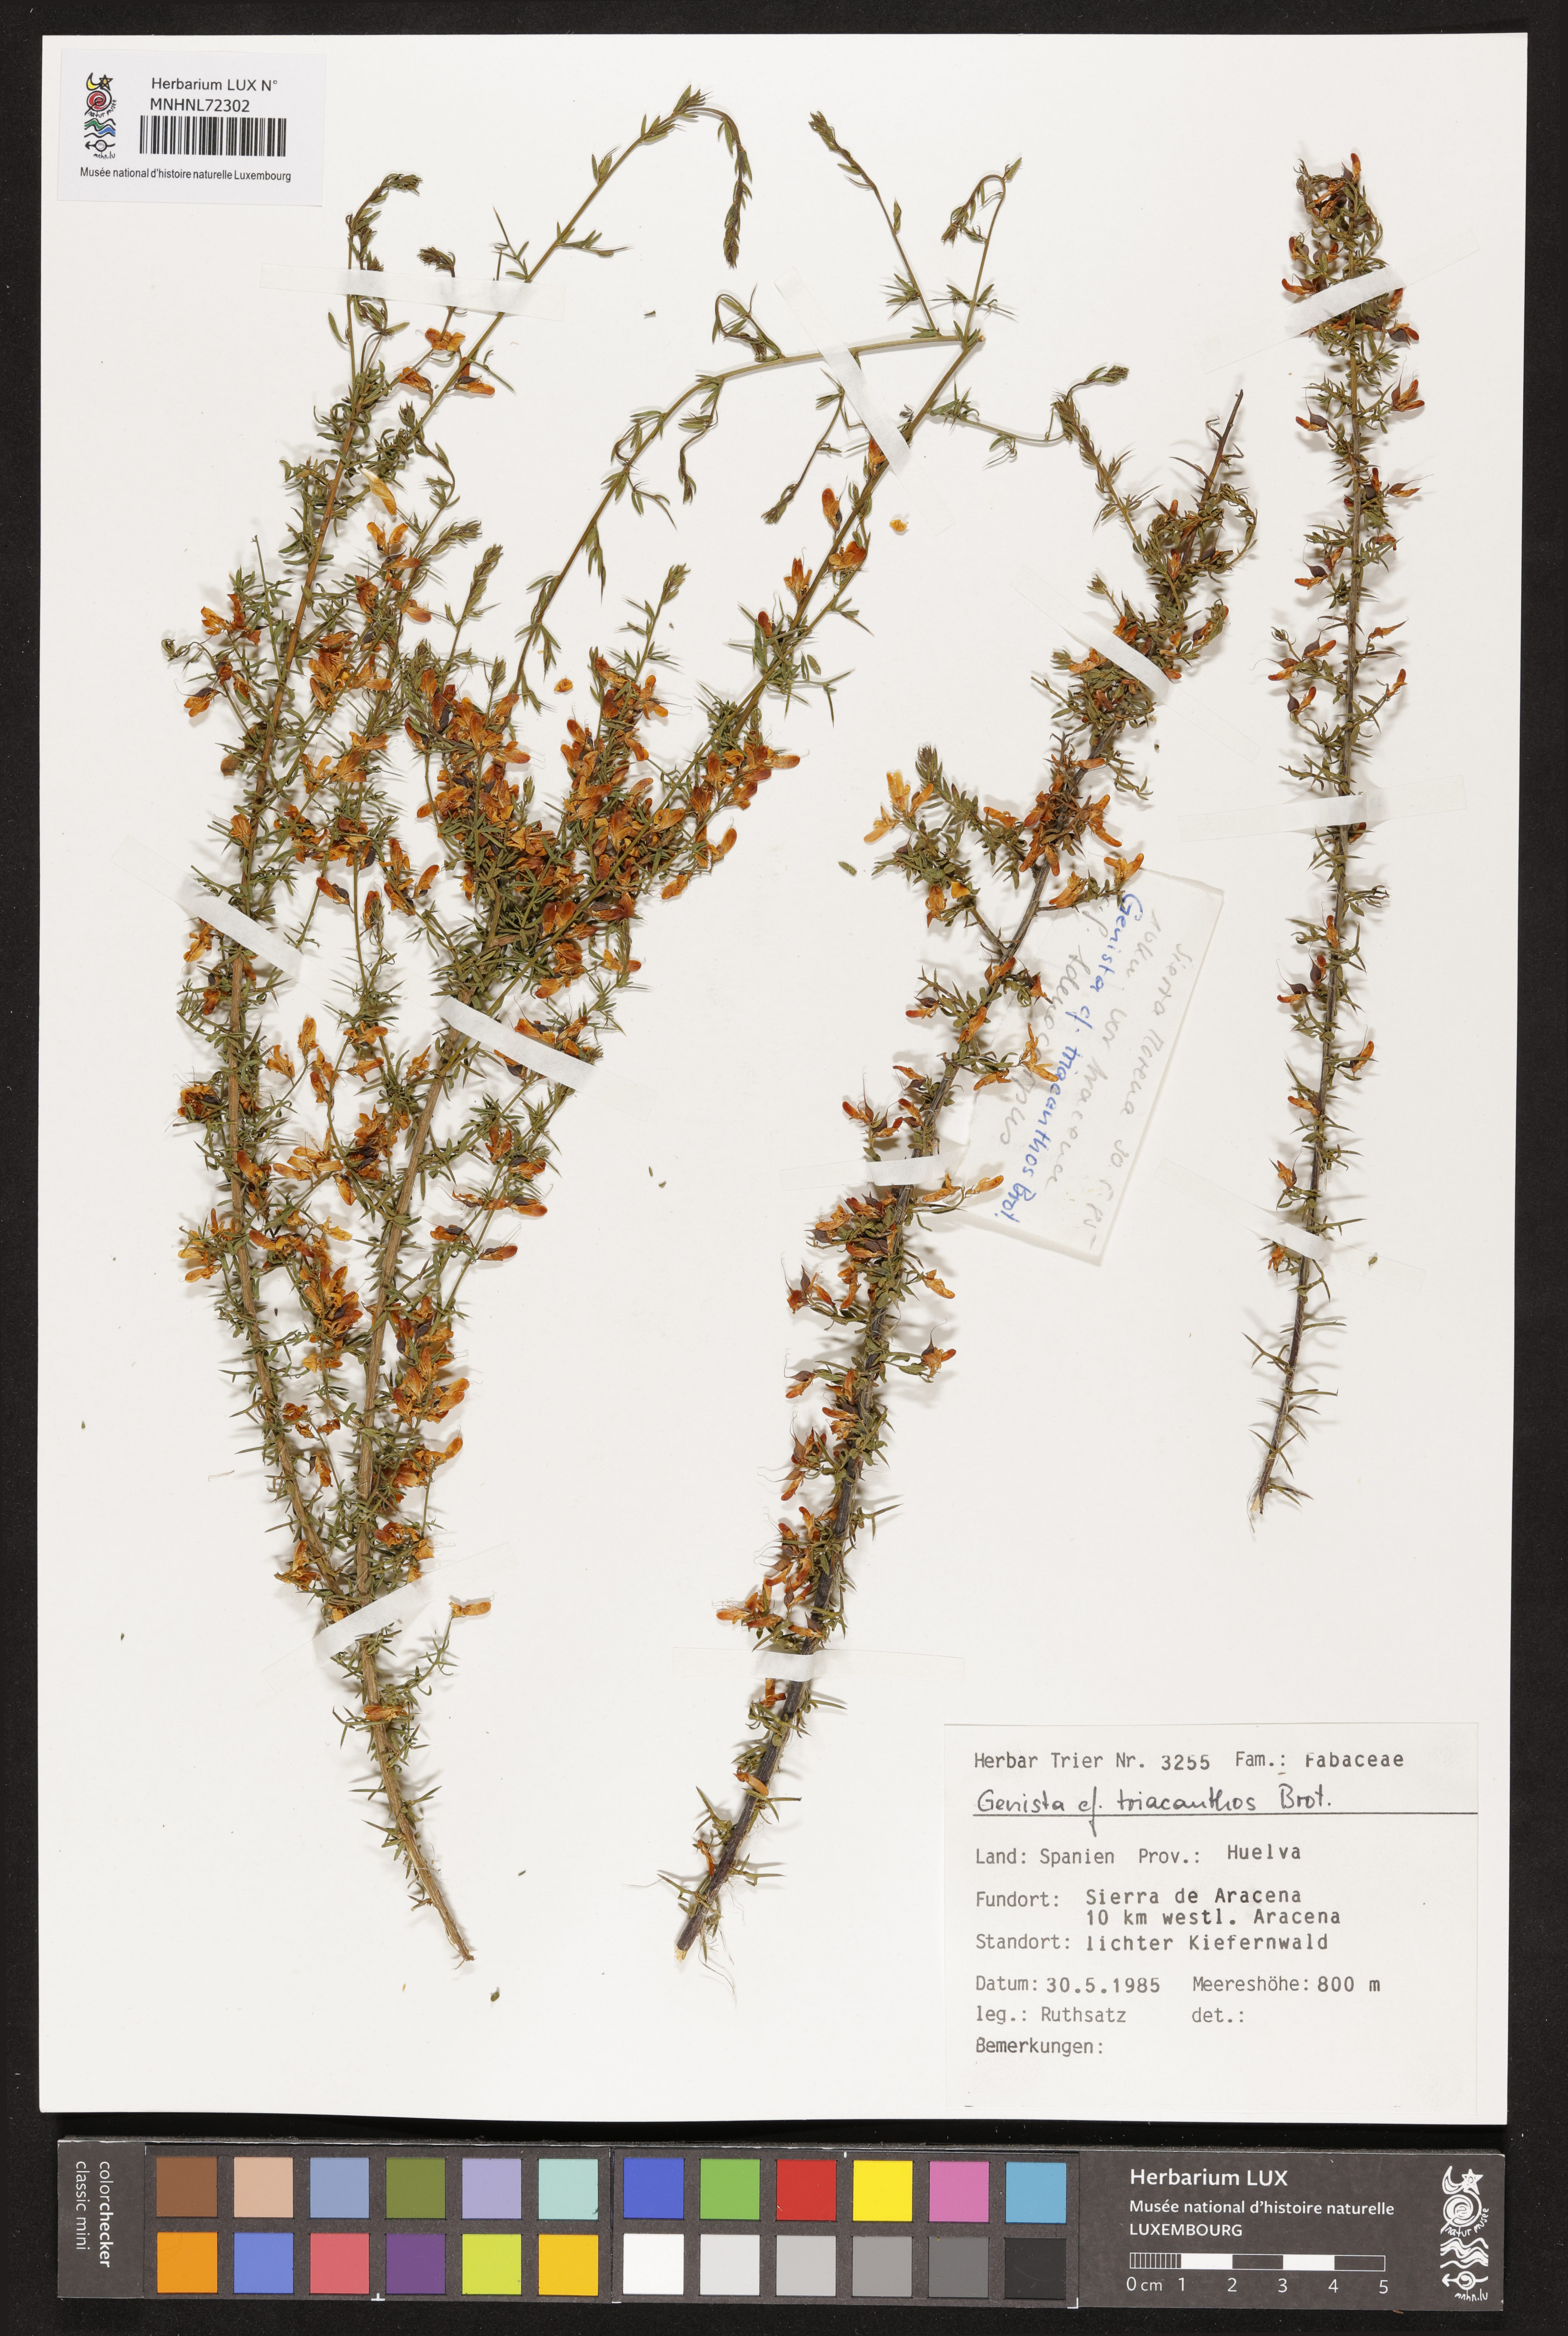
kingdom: Plantae
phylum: Tracheophyta
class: Magnoliopsida
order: Fabales
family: Fabaceae
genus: Genista
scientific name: Genista triacanthos
